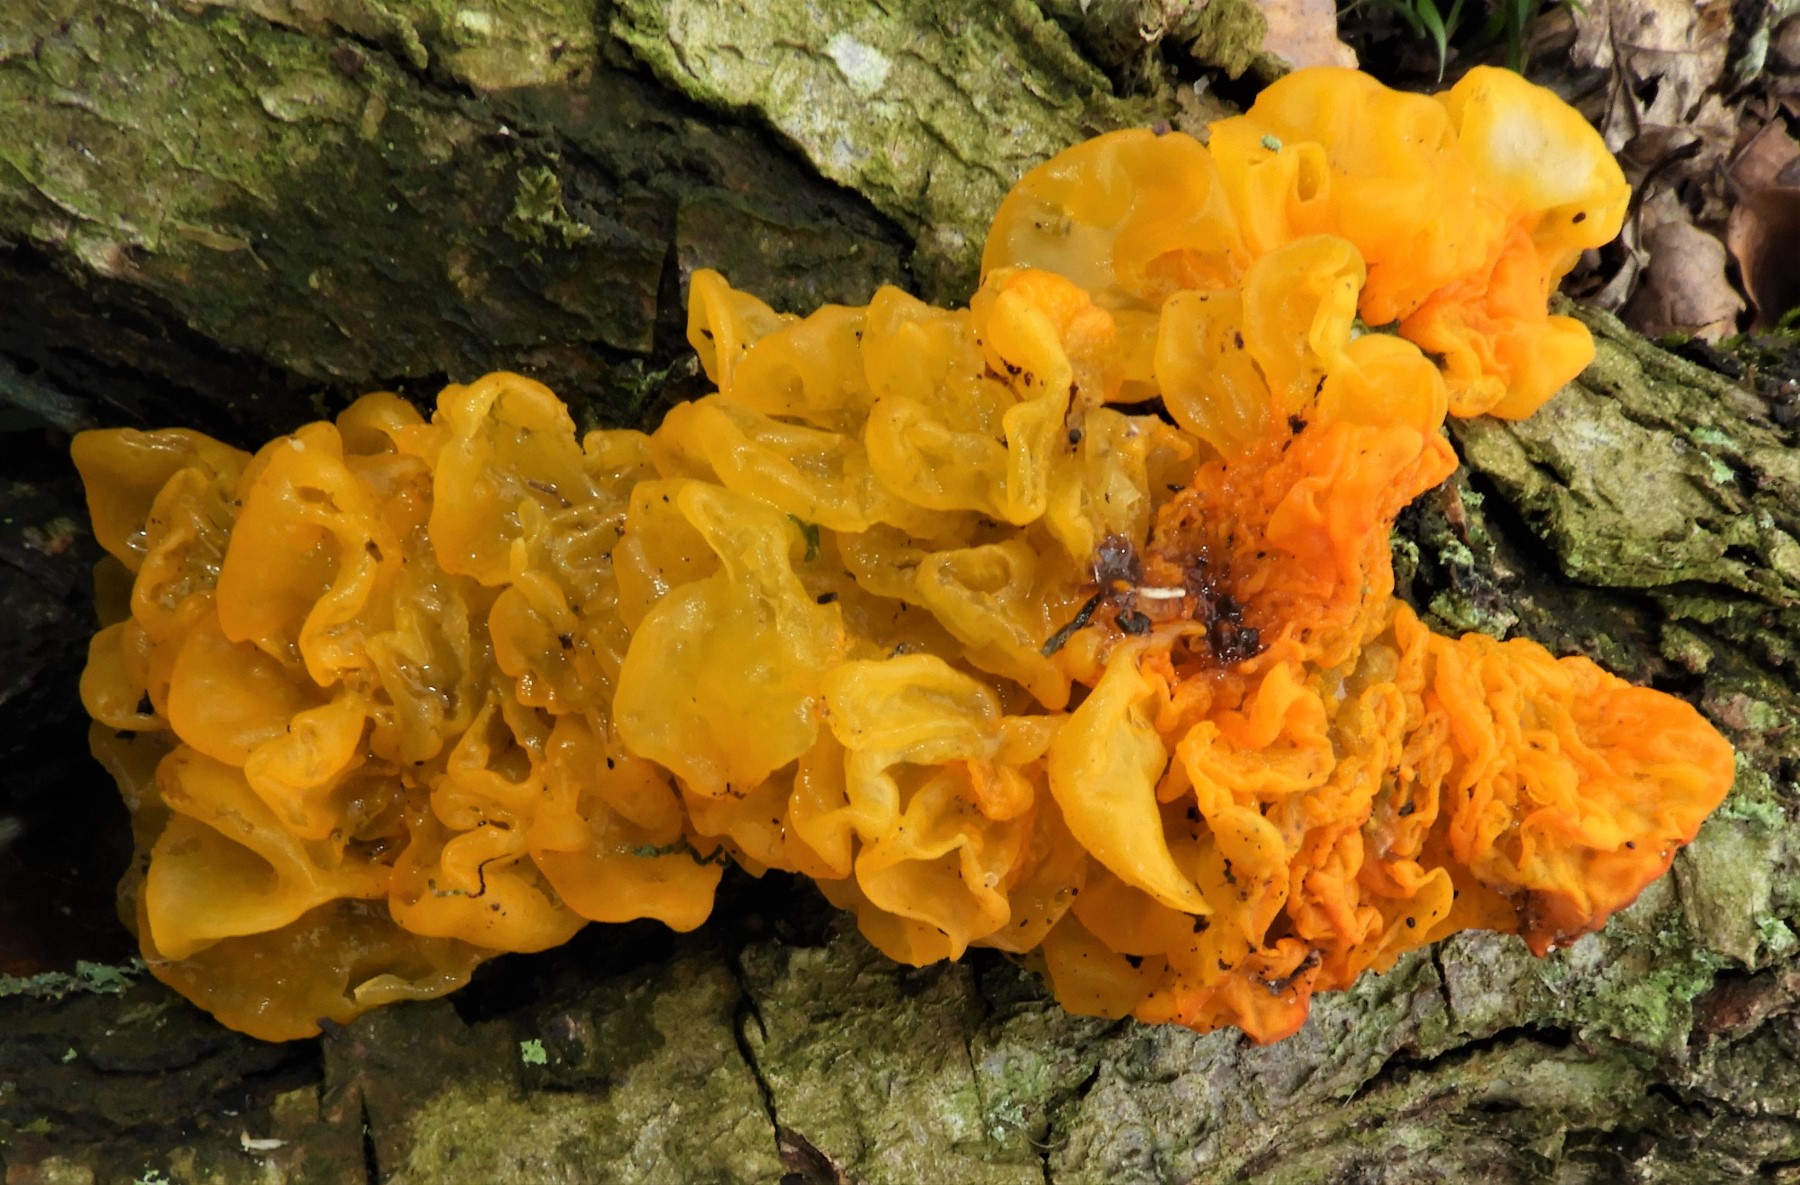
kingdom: Fungi
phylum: Basidiomycota
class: Tremellomycetes
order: Tremellales
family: Tremellaceae
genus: Tremella
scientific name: Tremella mesenterica
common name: gul bævresvamp
